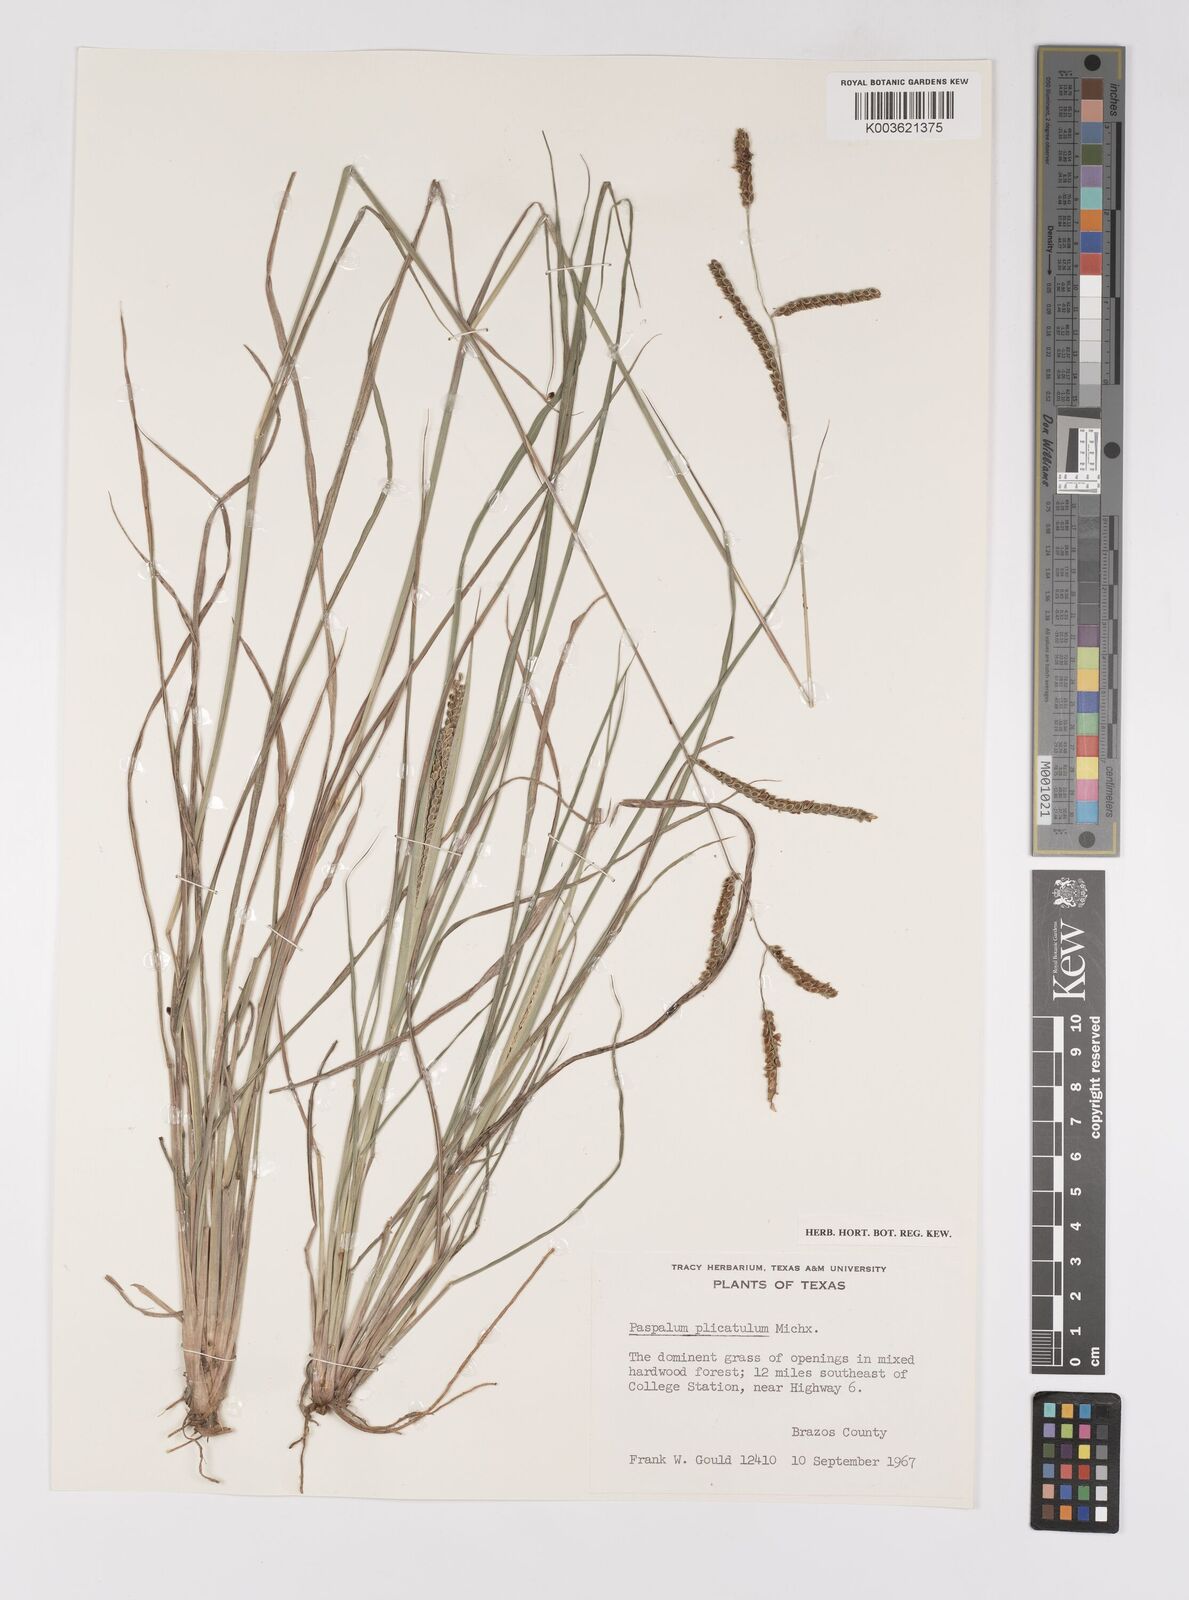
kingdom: Plantae
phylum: Tracheophyta
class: Liliopsida
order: Poales
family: Poaceae
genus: Paspalum
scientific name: Paspalum plicatulum
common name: Top paspalum
